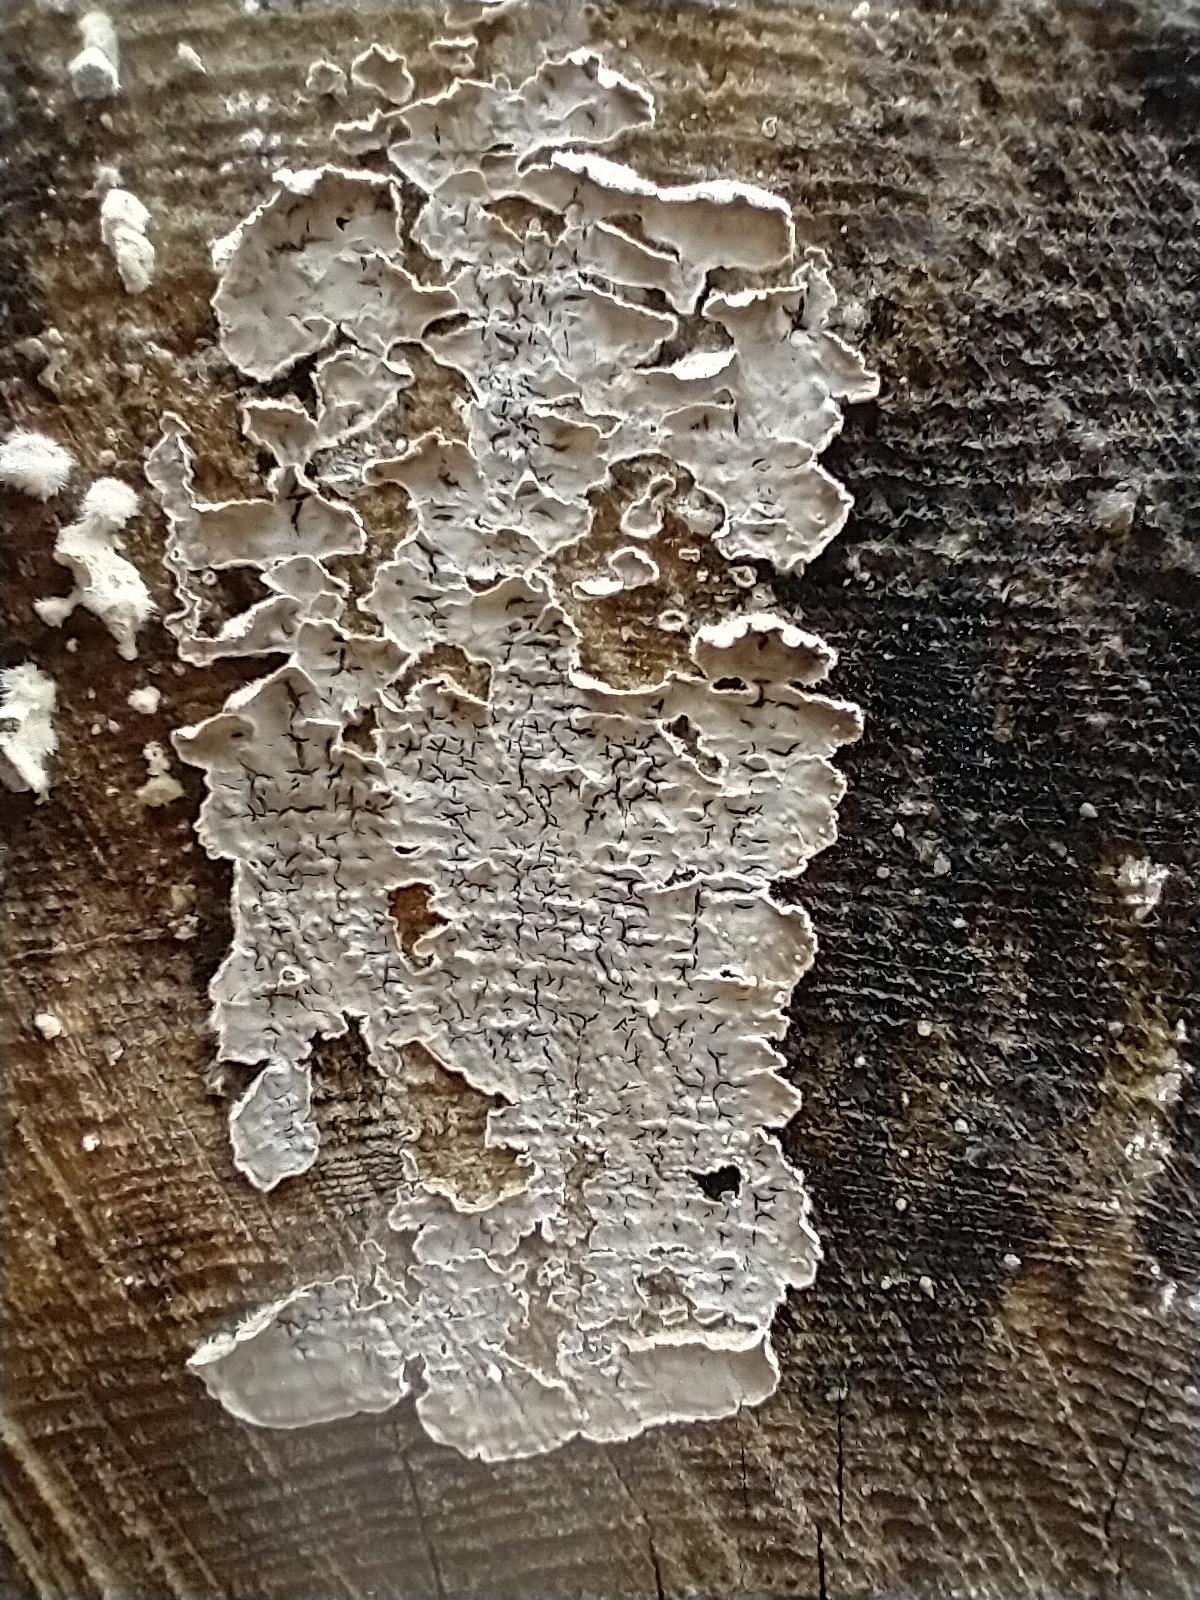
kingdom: Fungi
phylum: Basidiomycota
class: Agaricomycetes
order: Corticiales
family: Corticiaceae
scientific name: Corticiaceae
